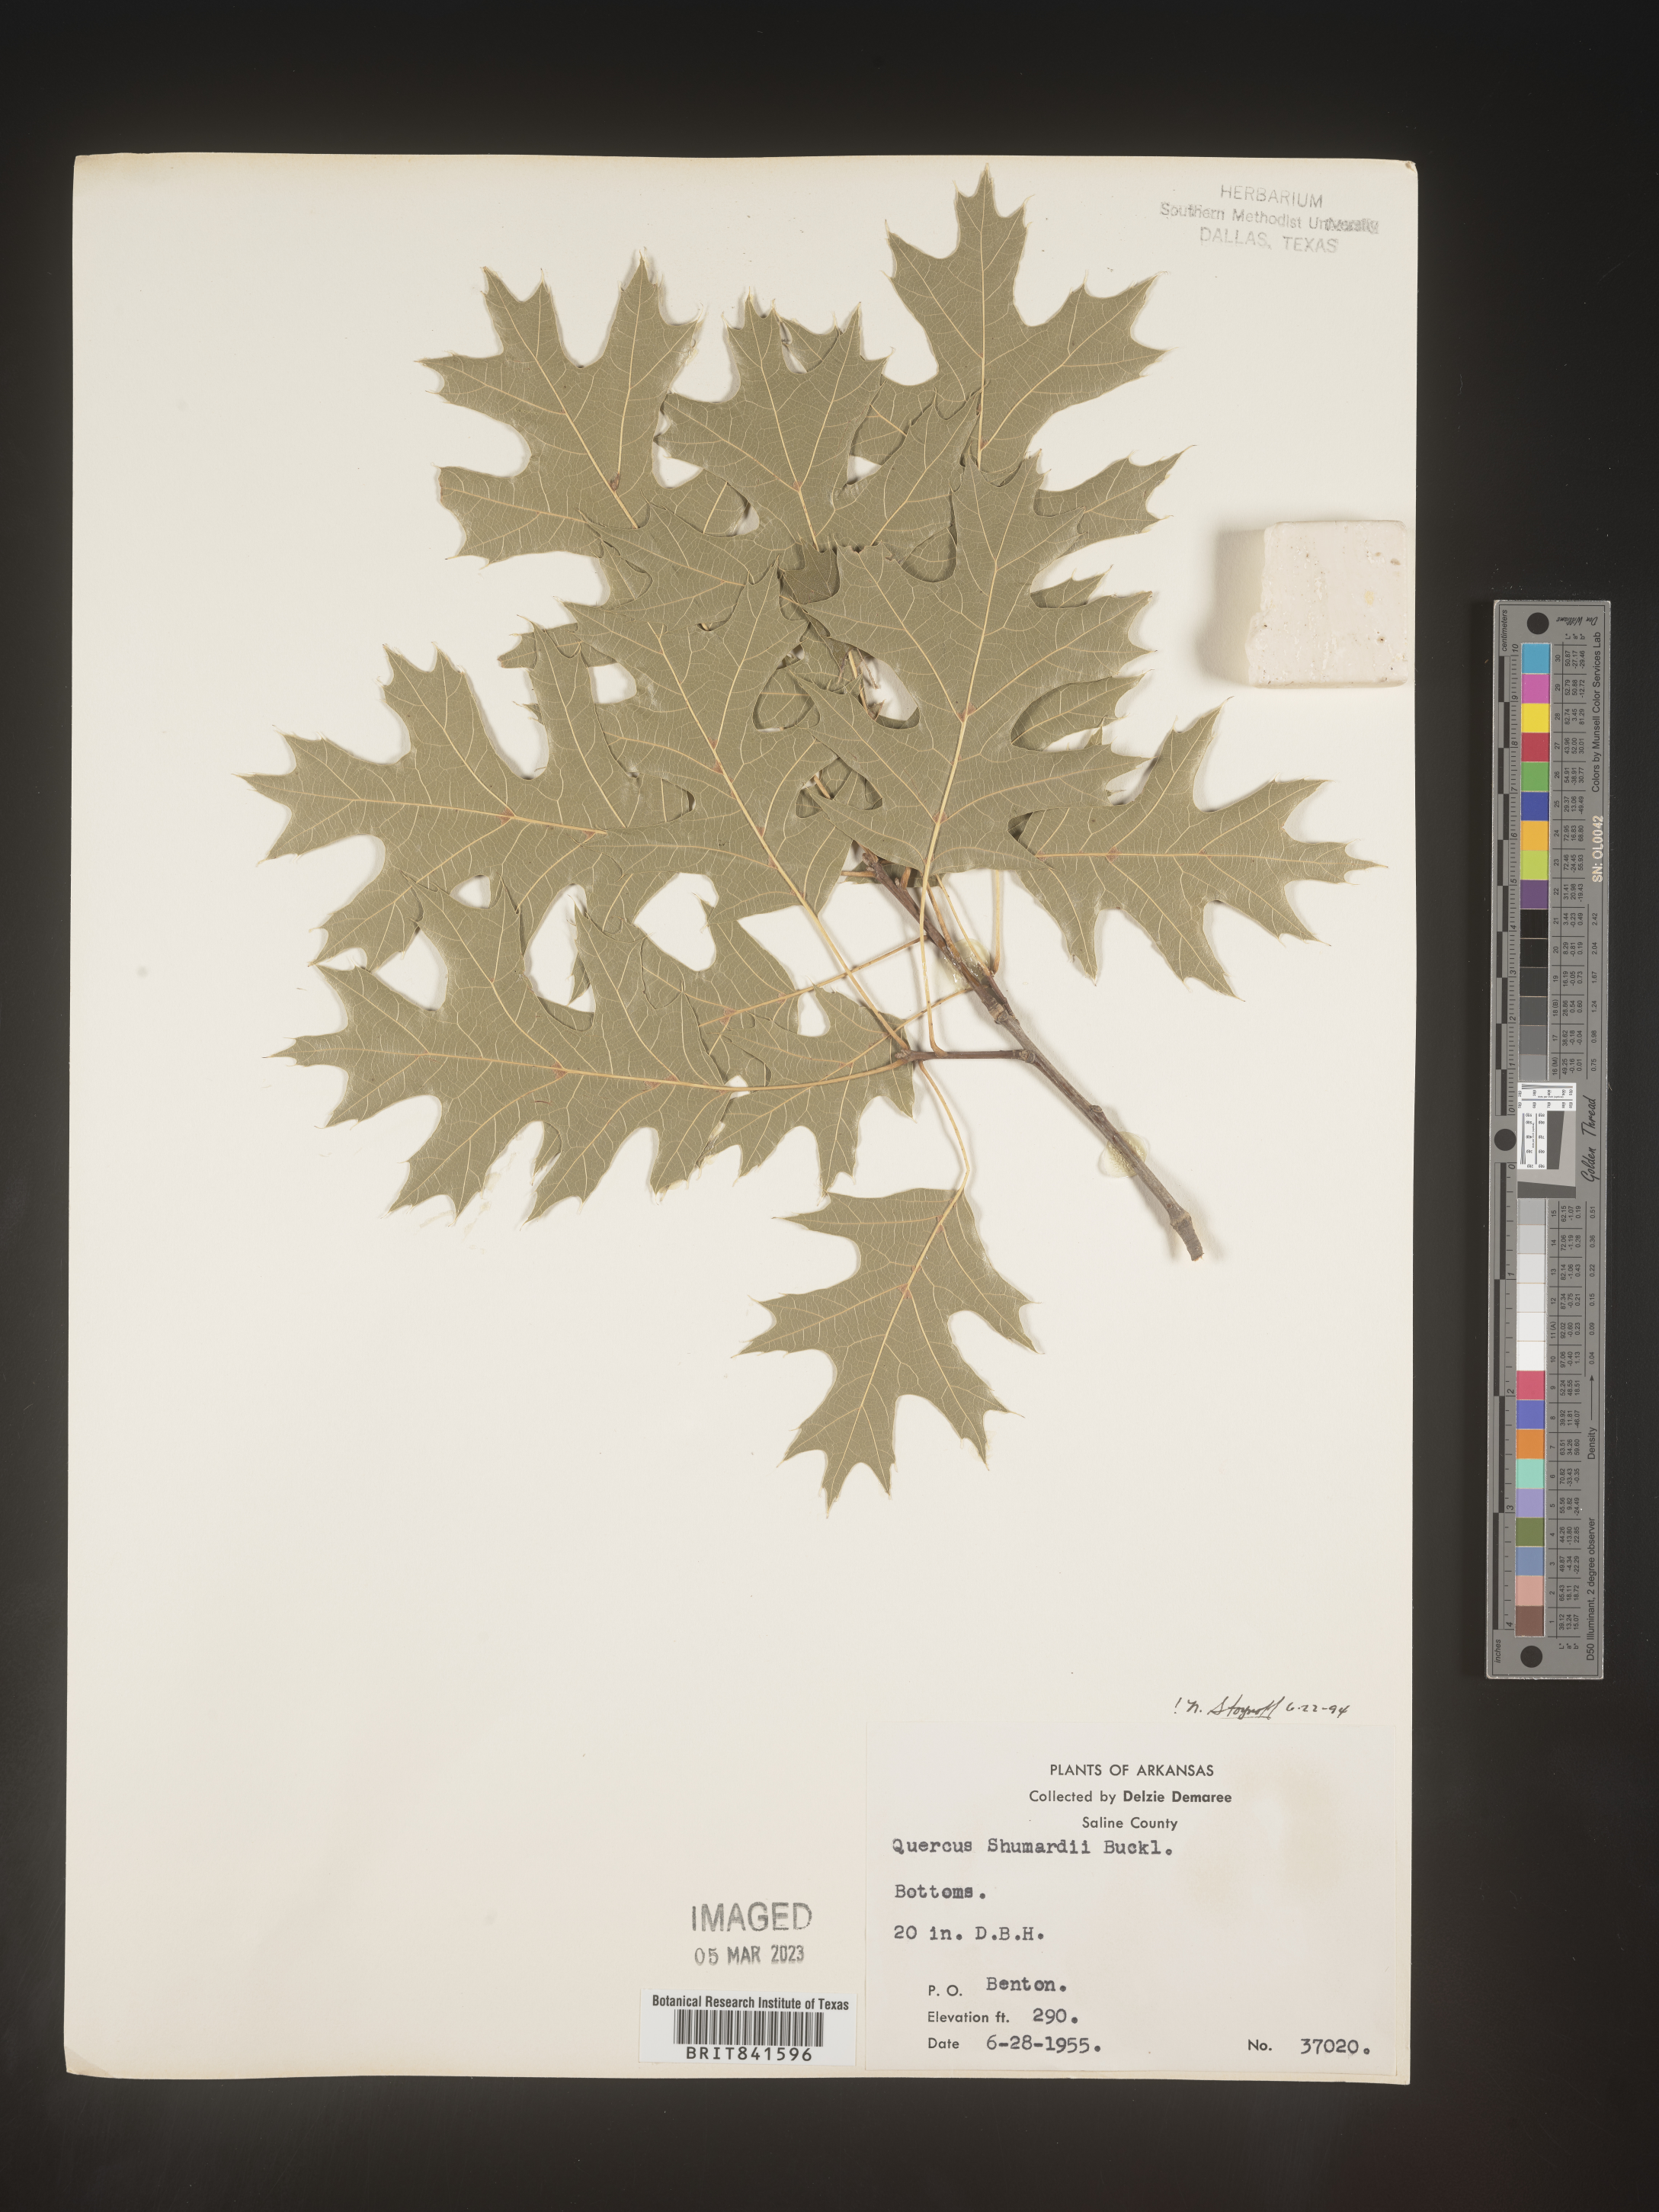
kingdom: Plantae
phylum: Tracheophyta
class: Magnoliopsida
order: Fagales
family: Fagaceae
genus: Quercus
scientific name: Quercus shumardii
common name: Shumard oak
